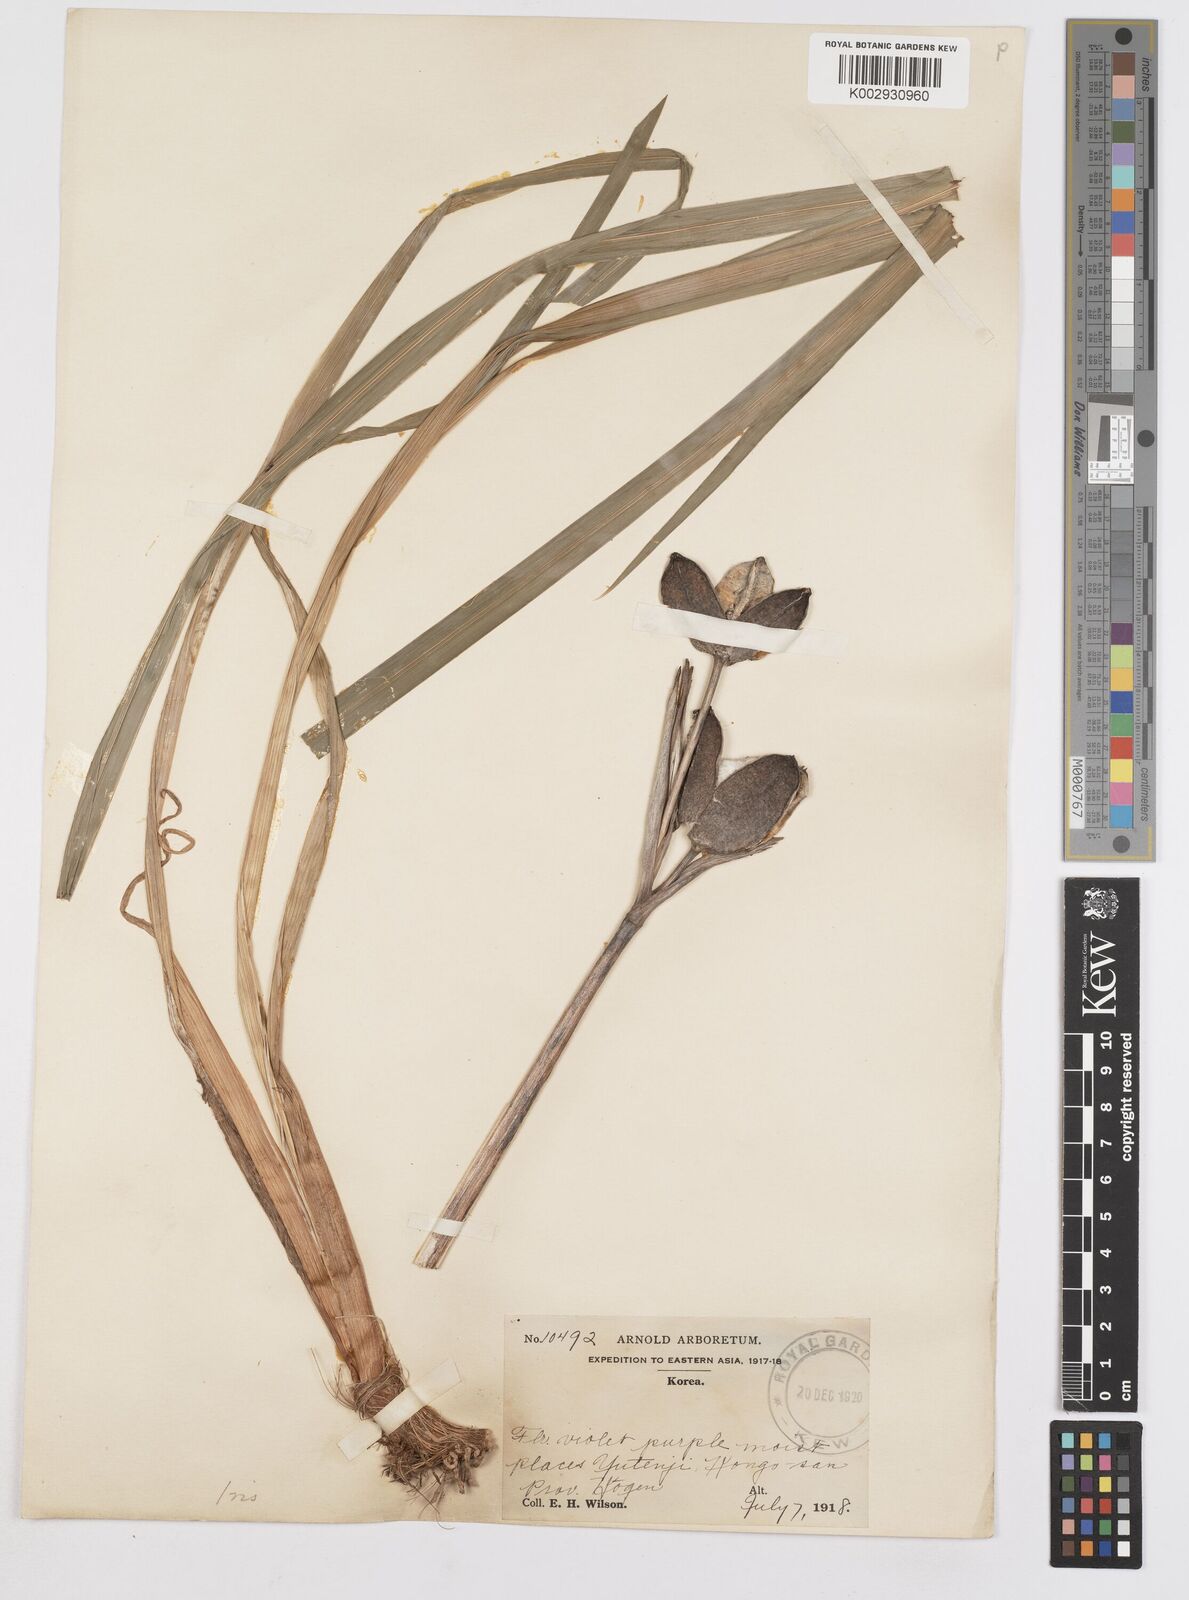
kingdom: Plantae
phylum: Tracheophyta
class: Liliopsida
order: Asparagales
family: Iridaceae
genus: Iris
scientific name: Iris
